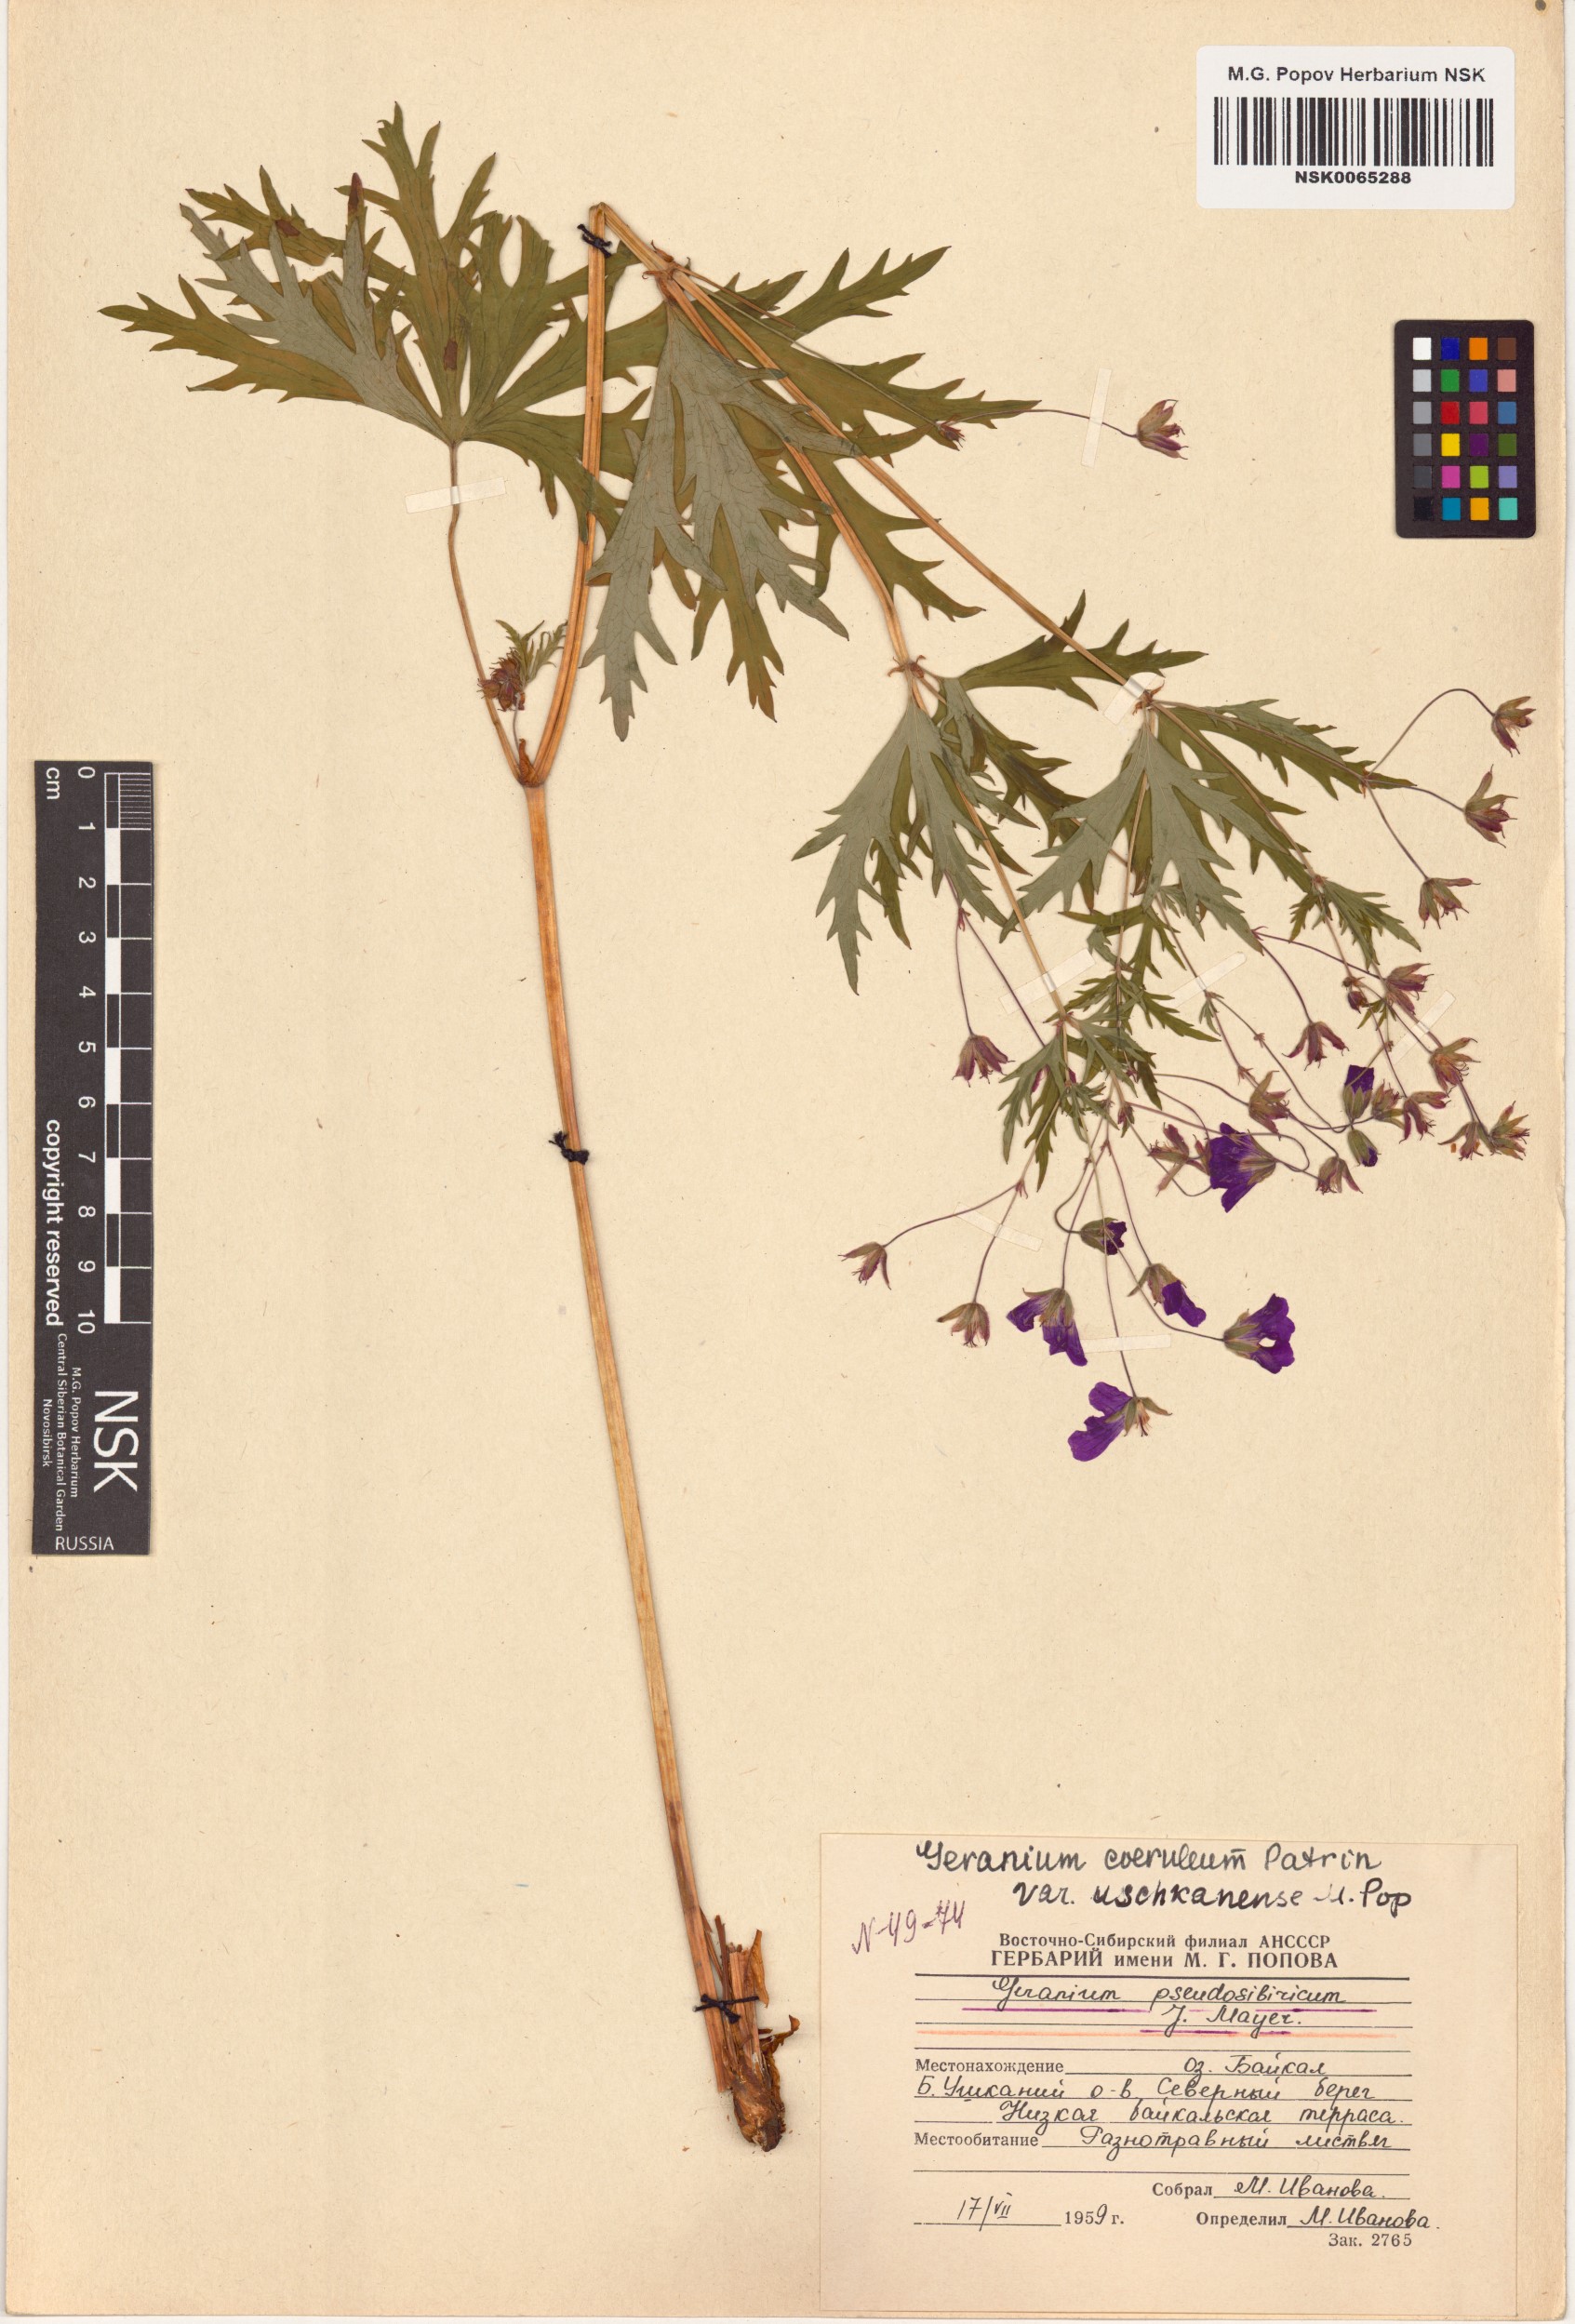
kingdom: Plantae
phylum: Tracheophyta
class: Magnoliopsida
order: Geraniales
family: Geraniaceae
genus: Geranium
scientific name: Geranium pseudosibiricum
